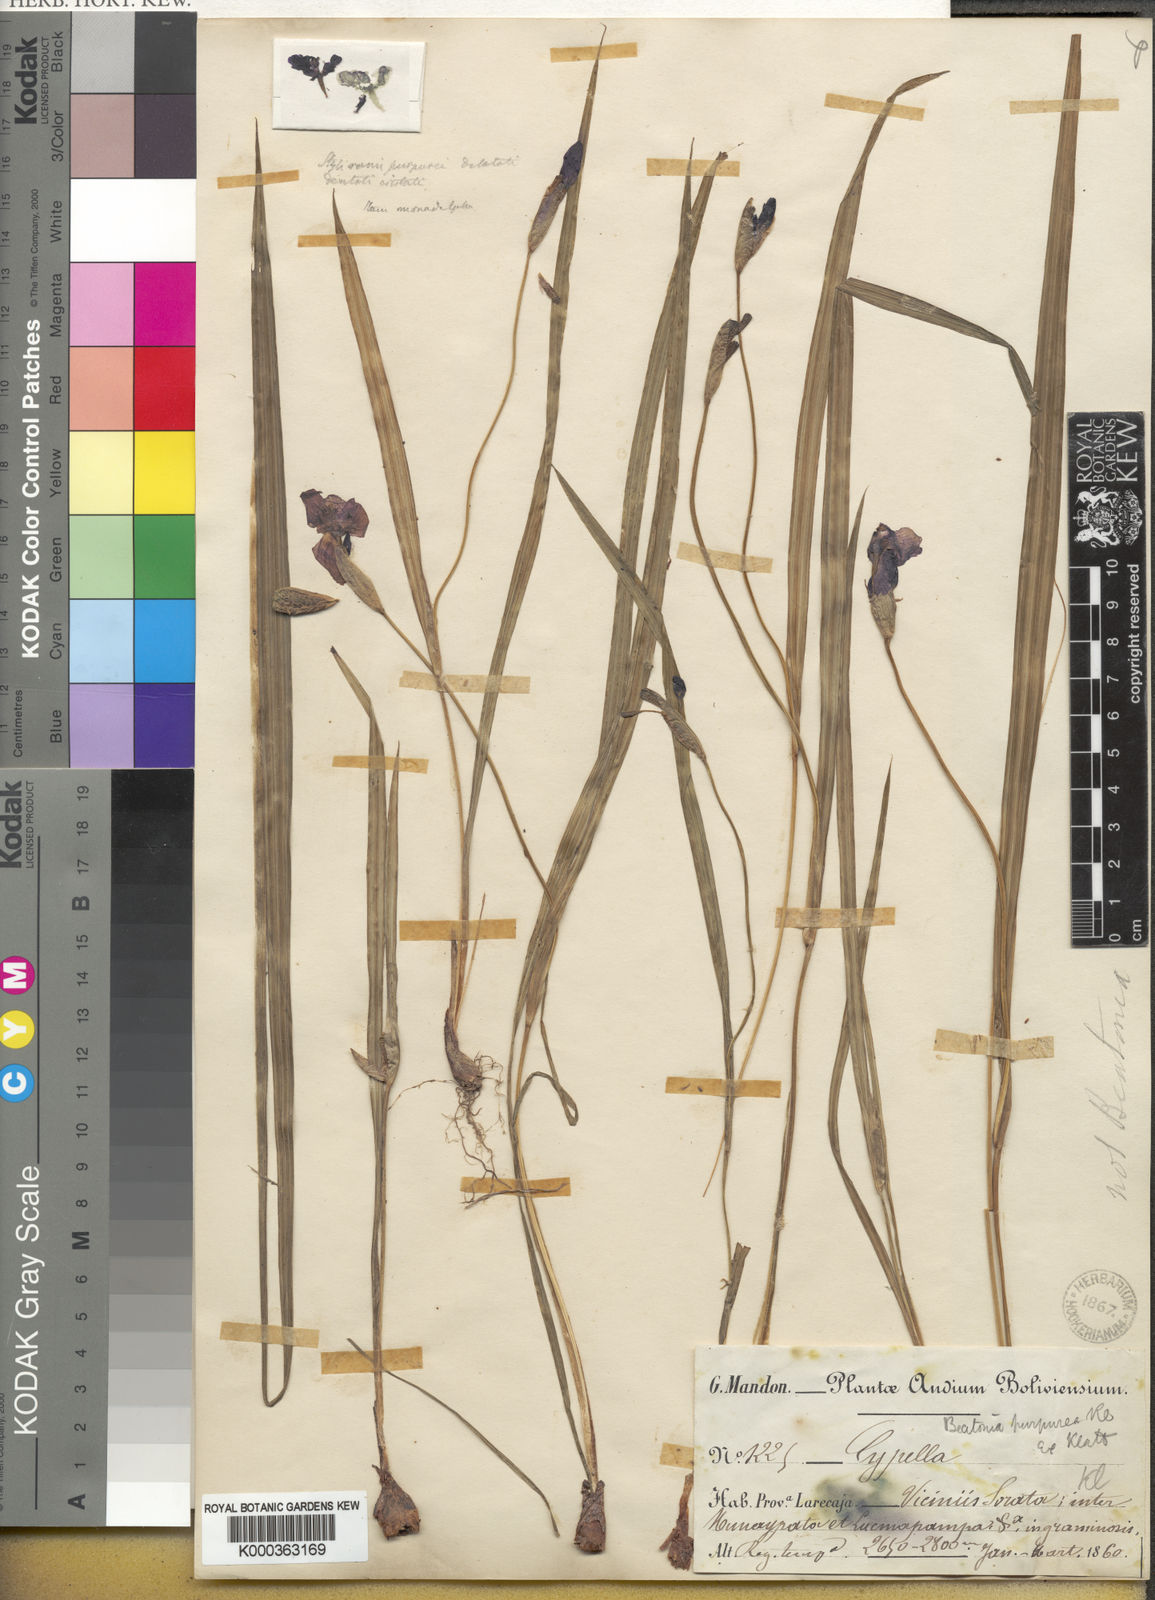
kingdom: Plantae
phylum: Tracheophyta
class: Liliopsida
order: Asparagales
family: Iridaceae
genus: Gelasine
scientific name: Gelasine
